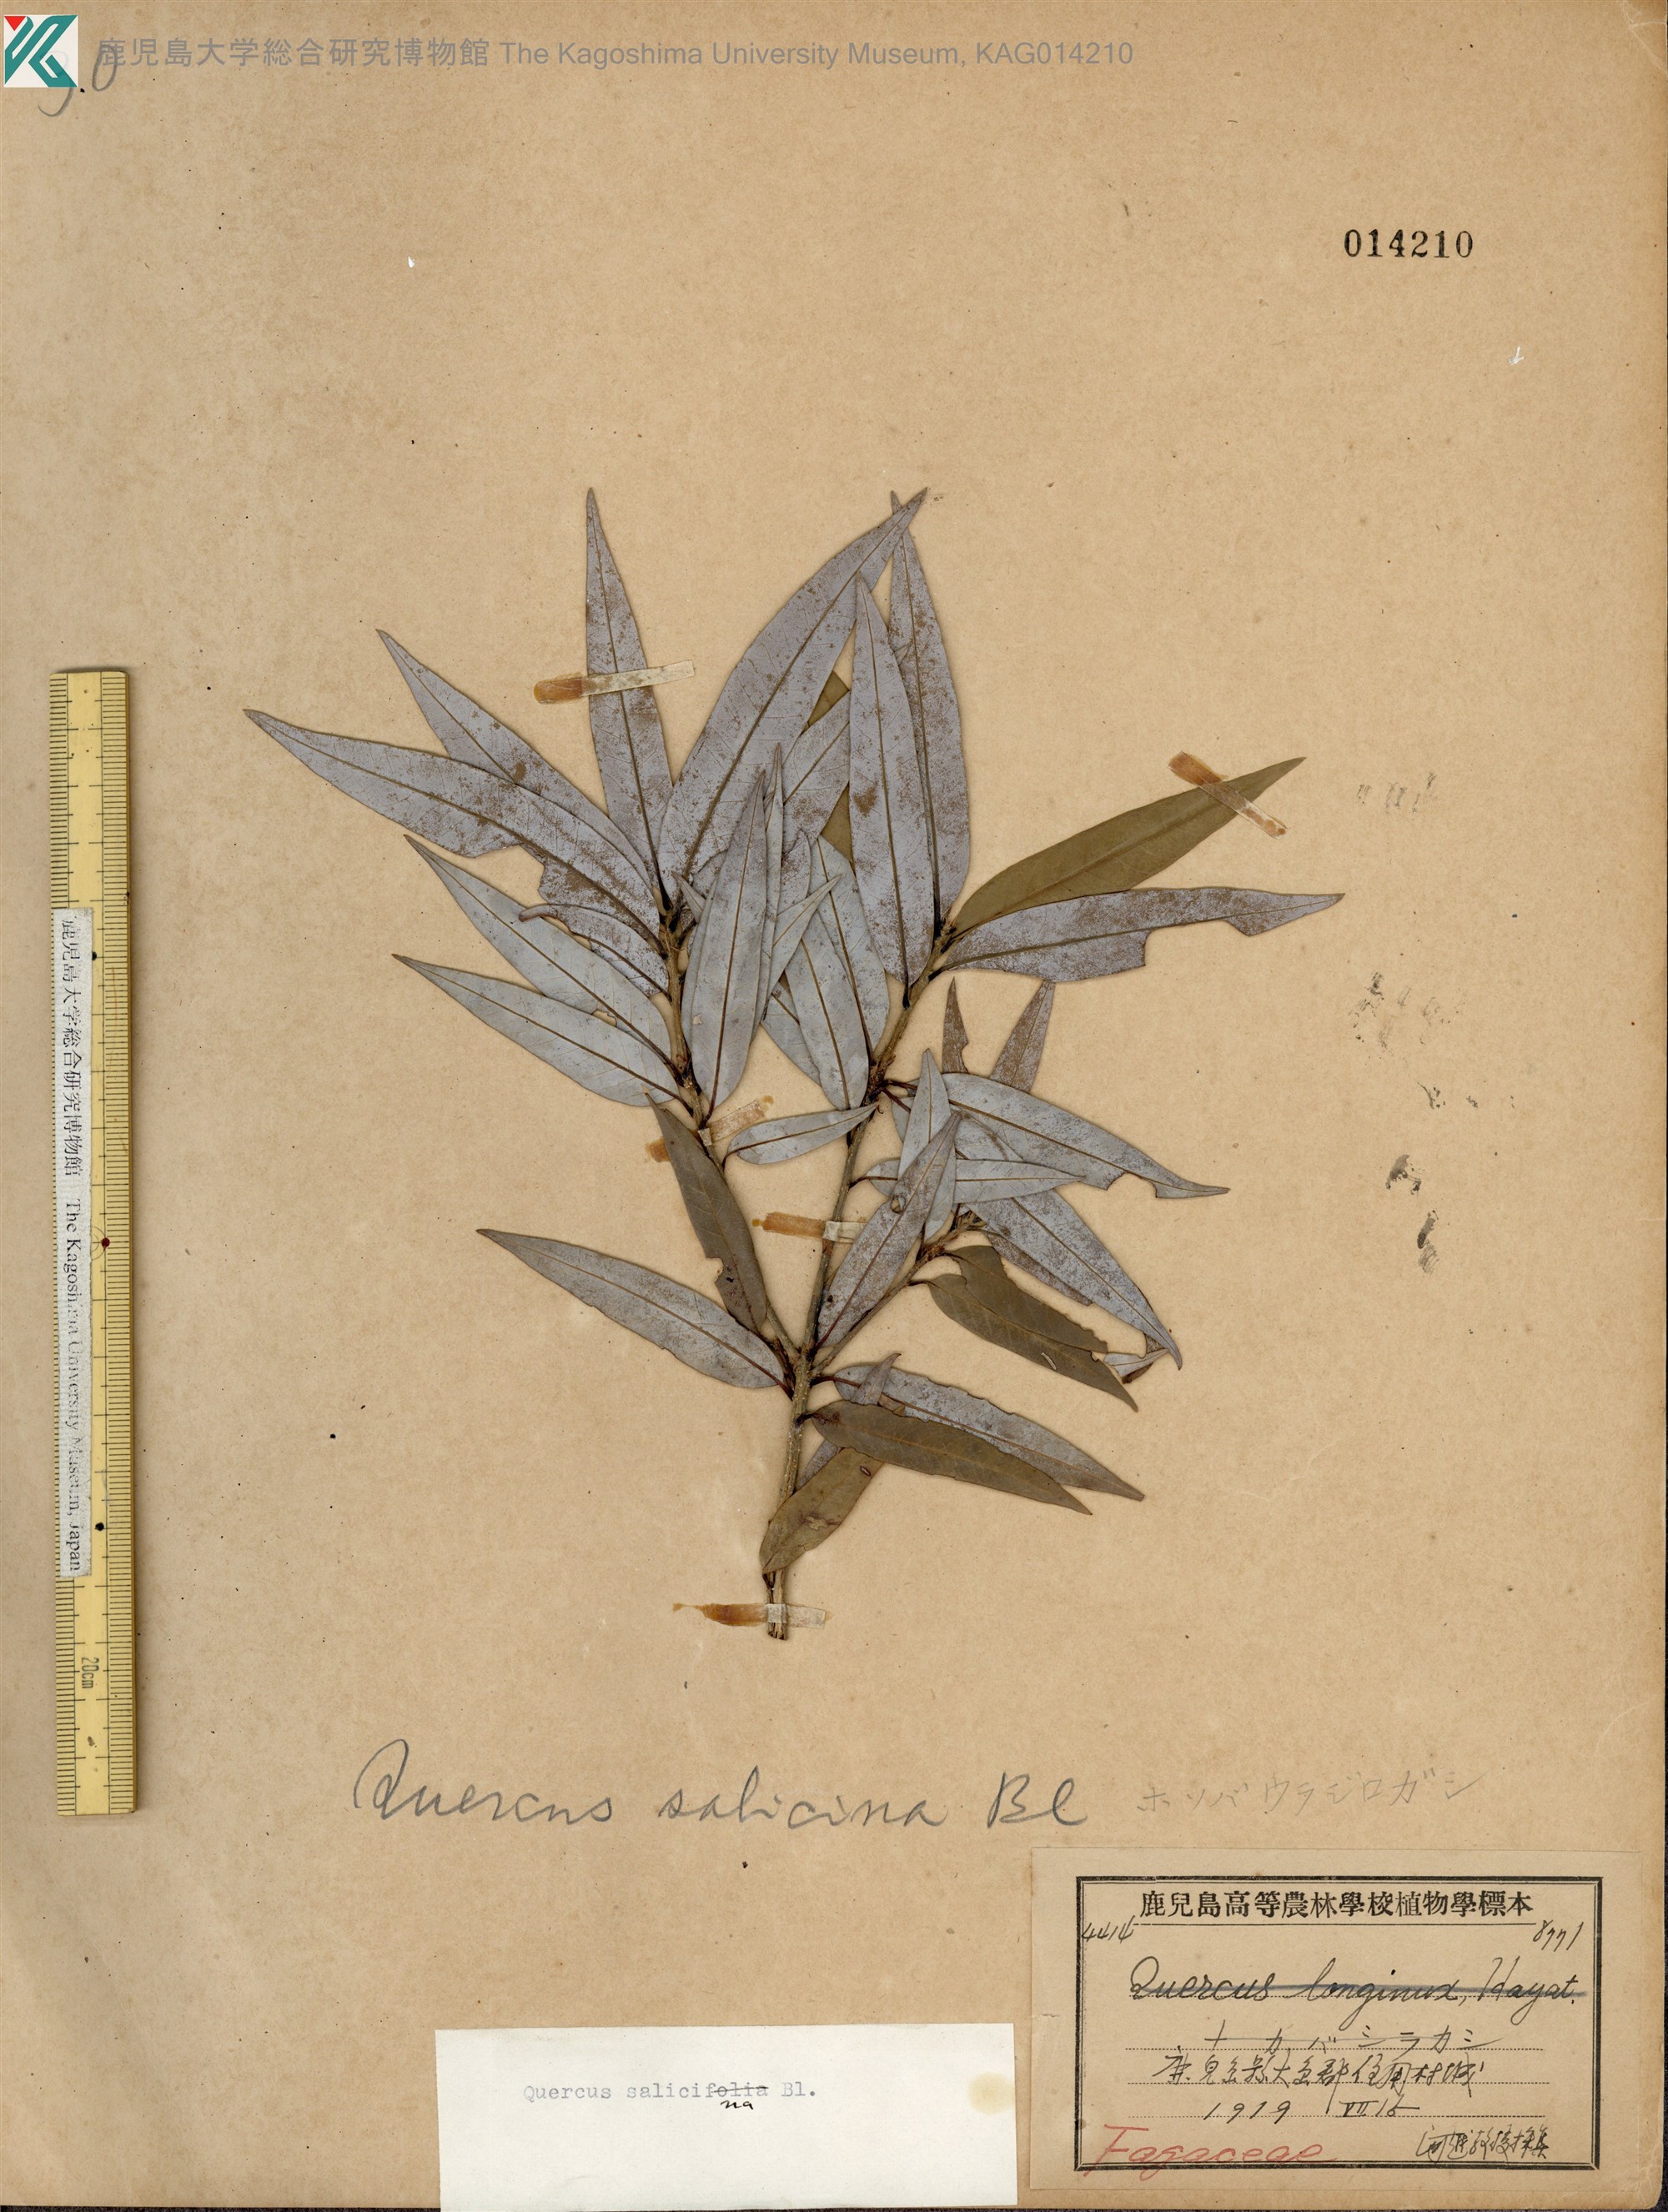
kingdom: Plantae
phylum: Tracheophyta
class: Magnoliopsida
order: Fagales
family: Fagaceae
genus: Quercus
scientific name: Quercus salicina
